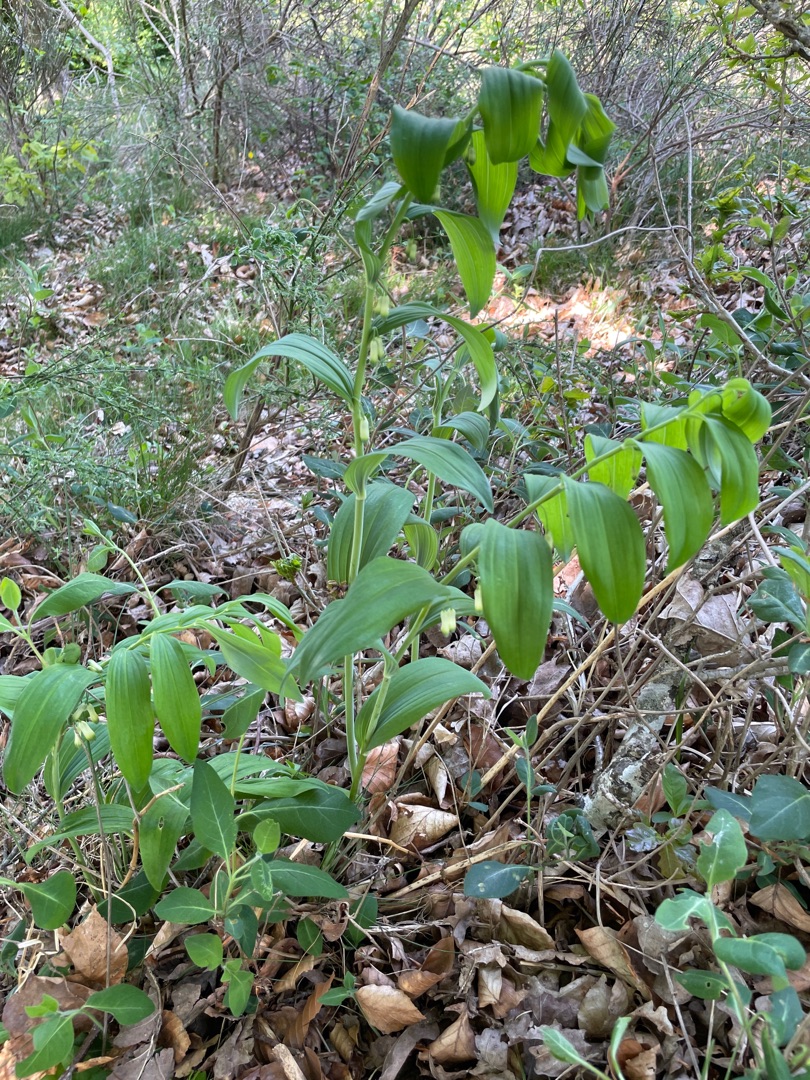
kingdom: Plantae
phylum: Tracheophyta
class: Liliopsida
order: Asparagales
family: Asparagaceae
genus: Polygonatum
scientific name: Polygonatum multiflorum
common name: Stor konval
